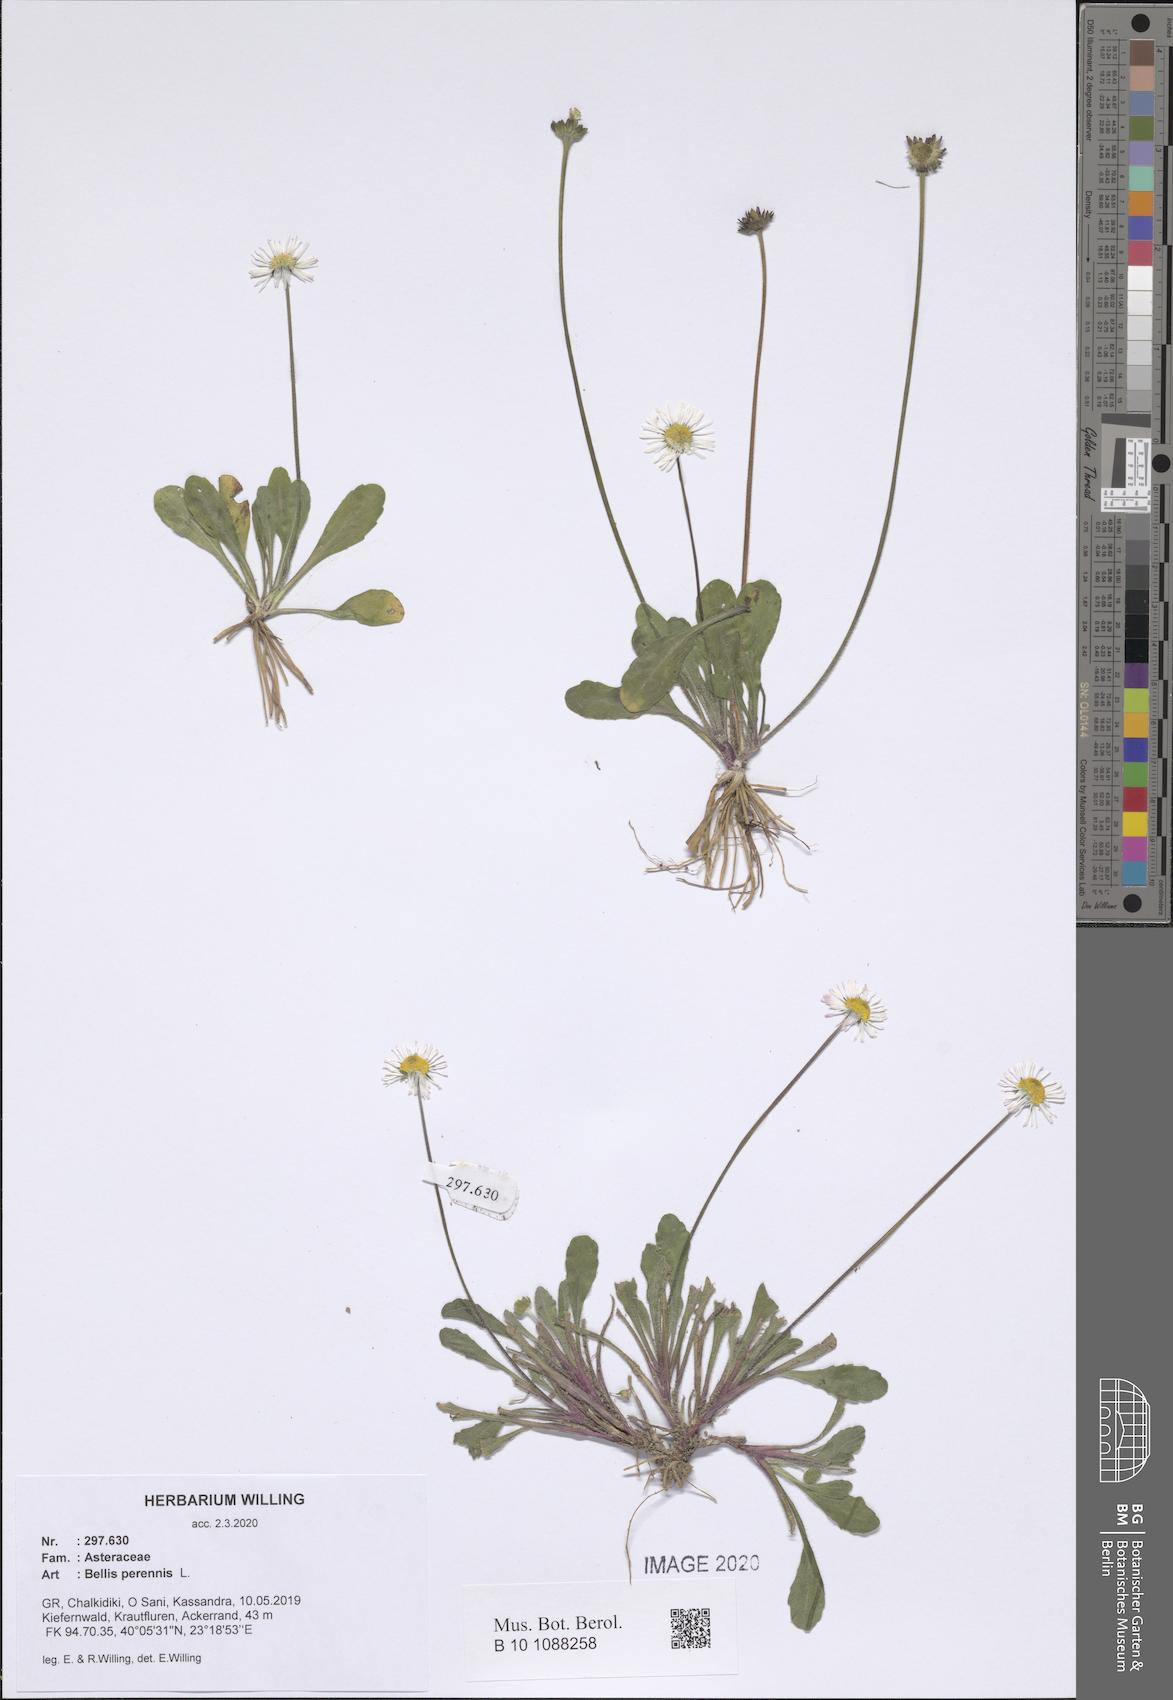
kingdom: Plantae
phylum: Tracheophyta
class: Magnoliopsida
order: Asterales
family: Asteraceae
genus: Bellis
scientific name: Bellis perennis
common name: Lawndaisy
